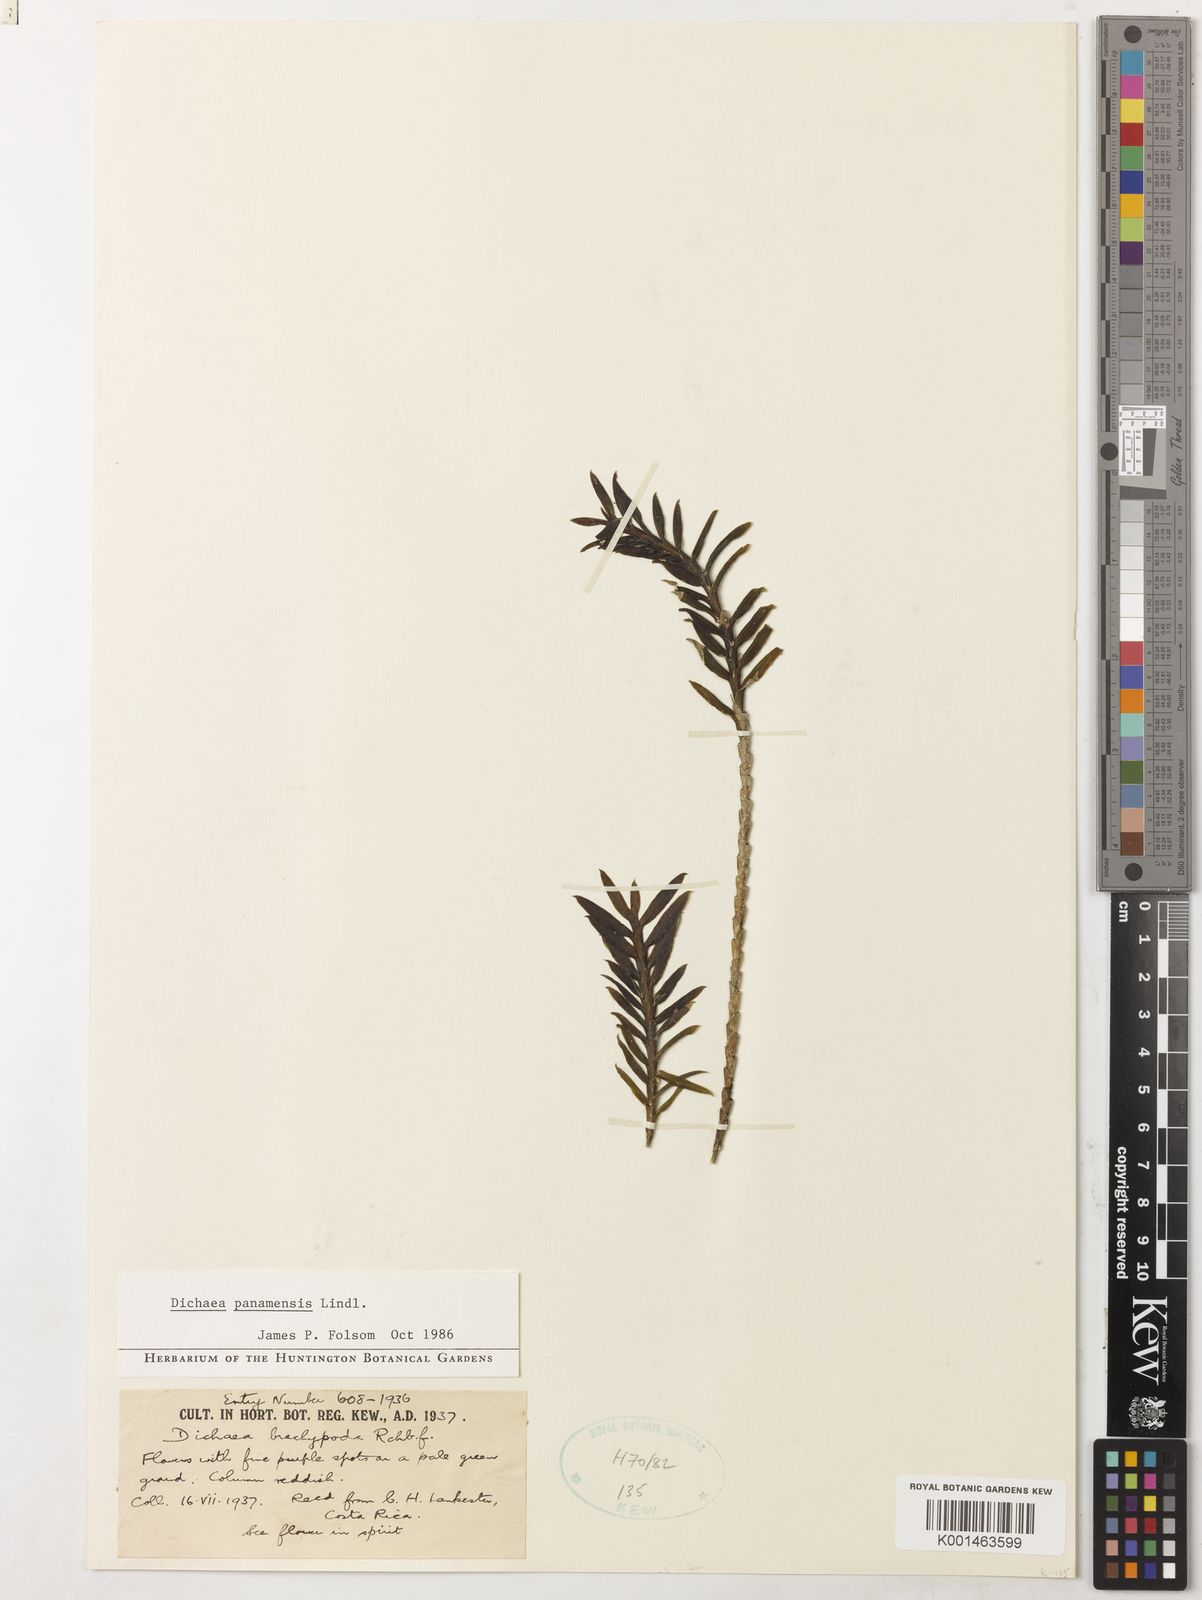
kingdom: Plantae
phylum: Tracheophyta
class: Liliopsida
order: Asparagales
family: Orchidaceae
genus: Dichaea
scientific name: Dichaea panamensis
